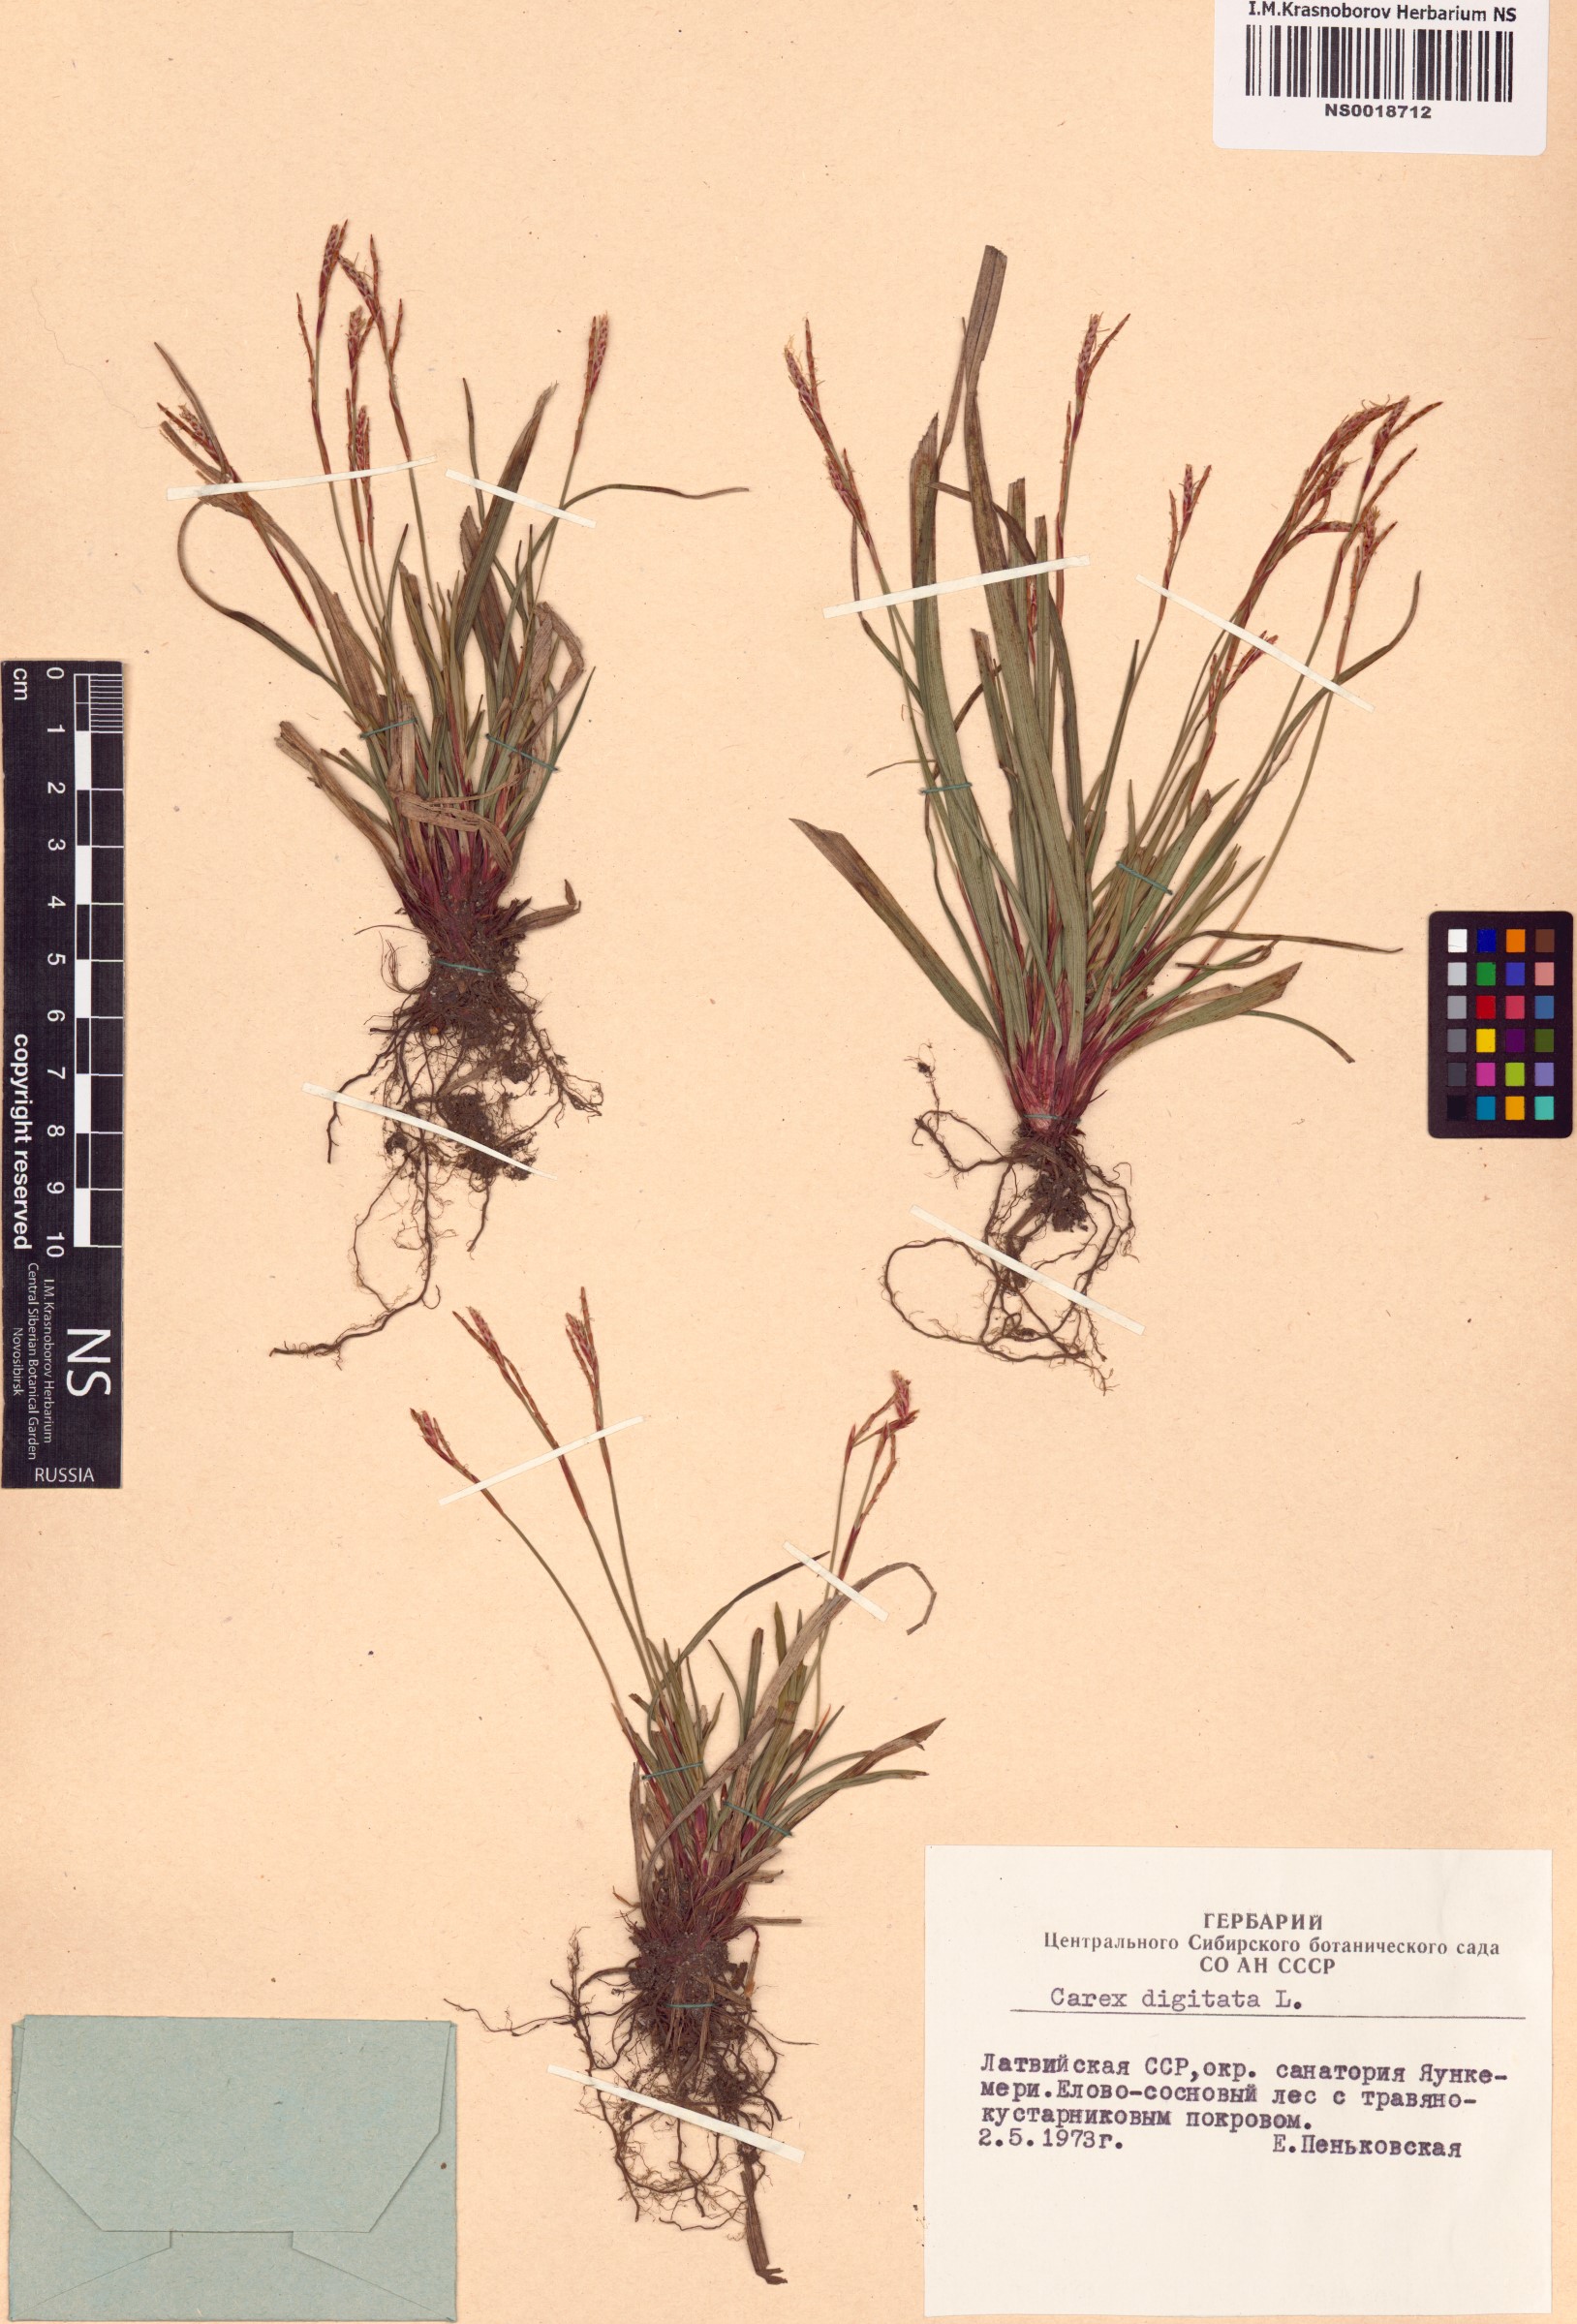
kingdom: Plantae
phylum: Tracheophyta
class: Liliopsida
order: Poales
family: Cyperaceae
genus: Carex
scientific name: Carex digitata
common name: Fingered sedge
